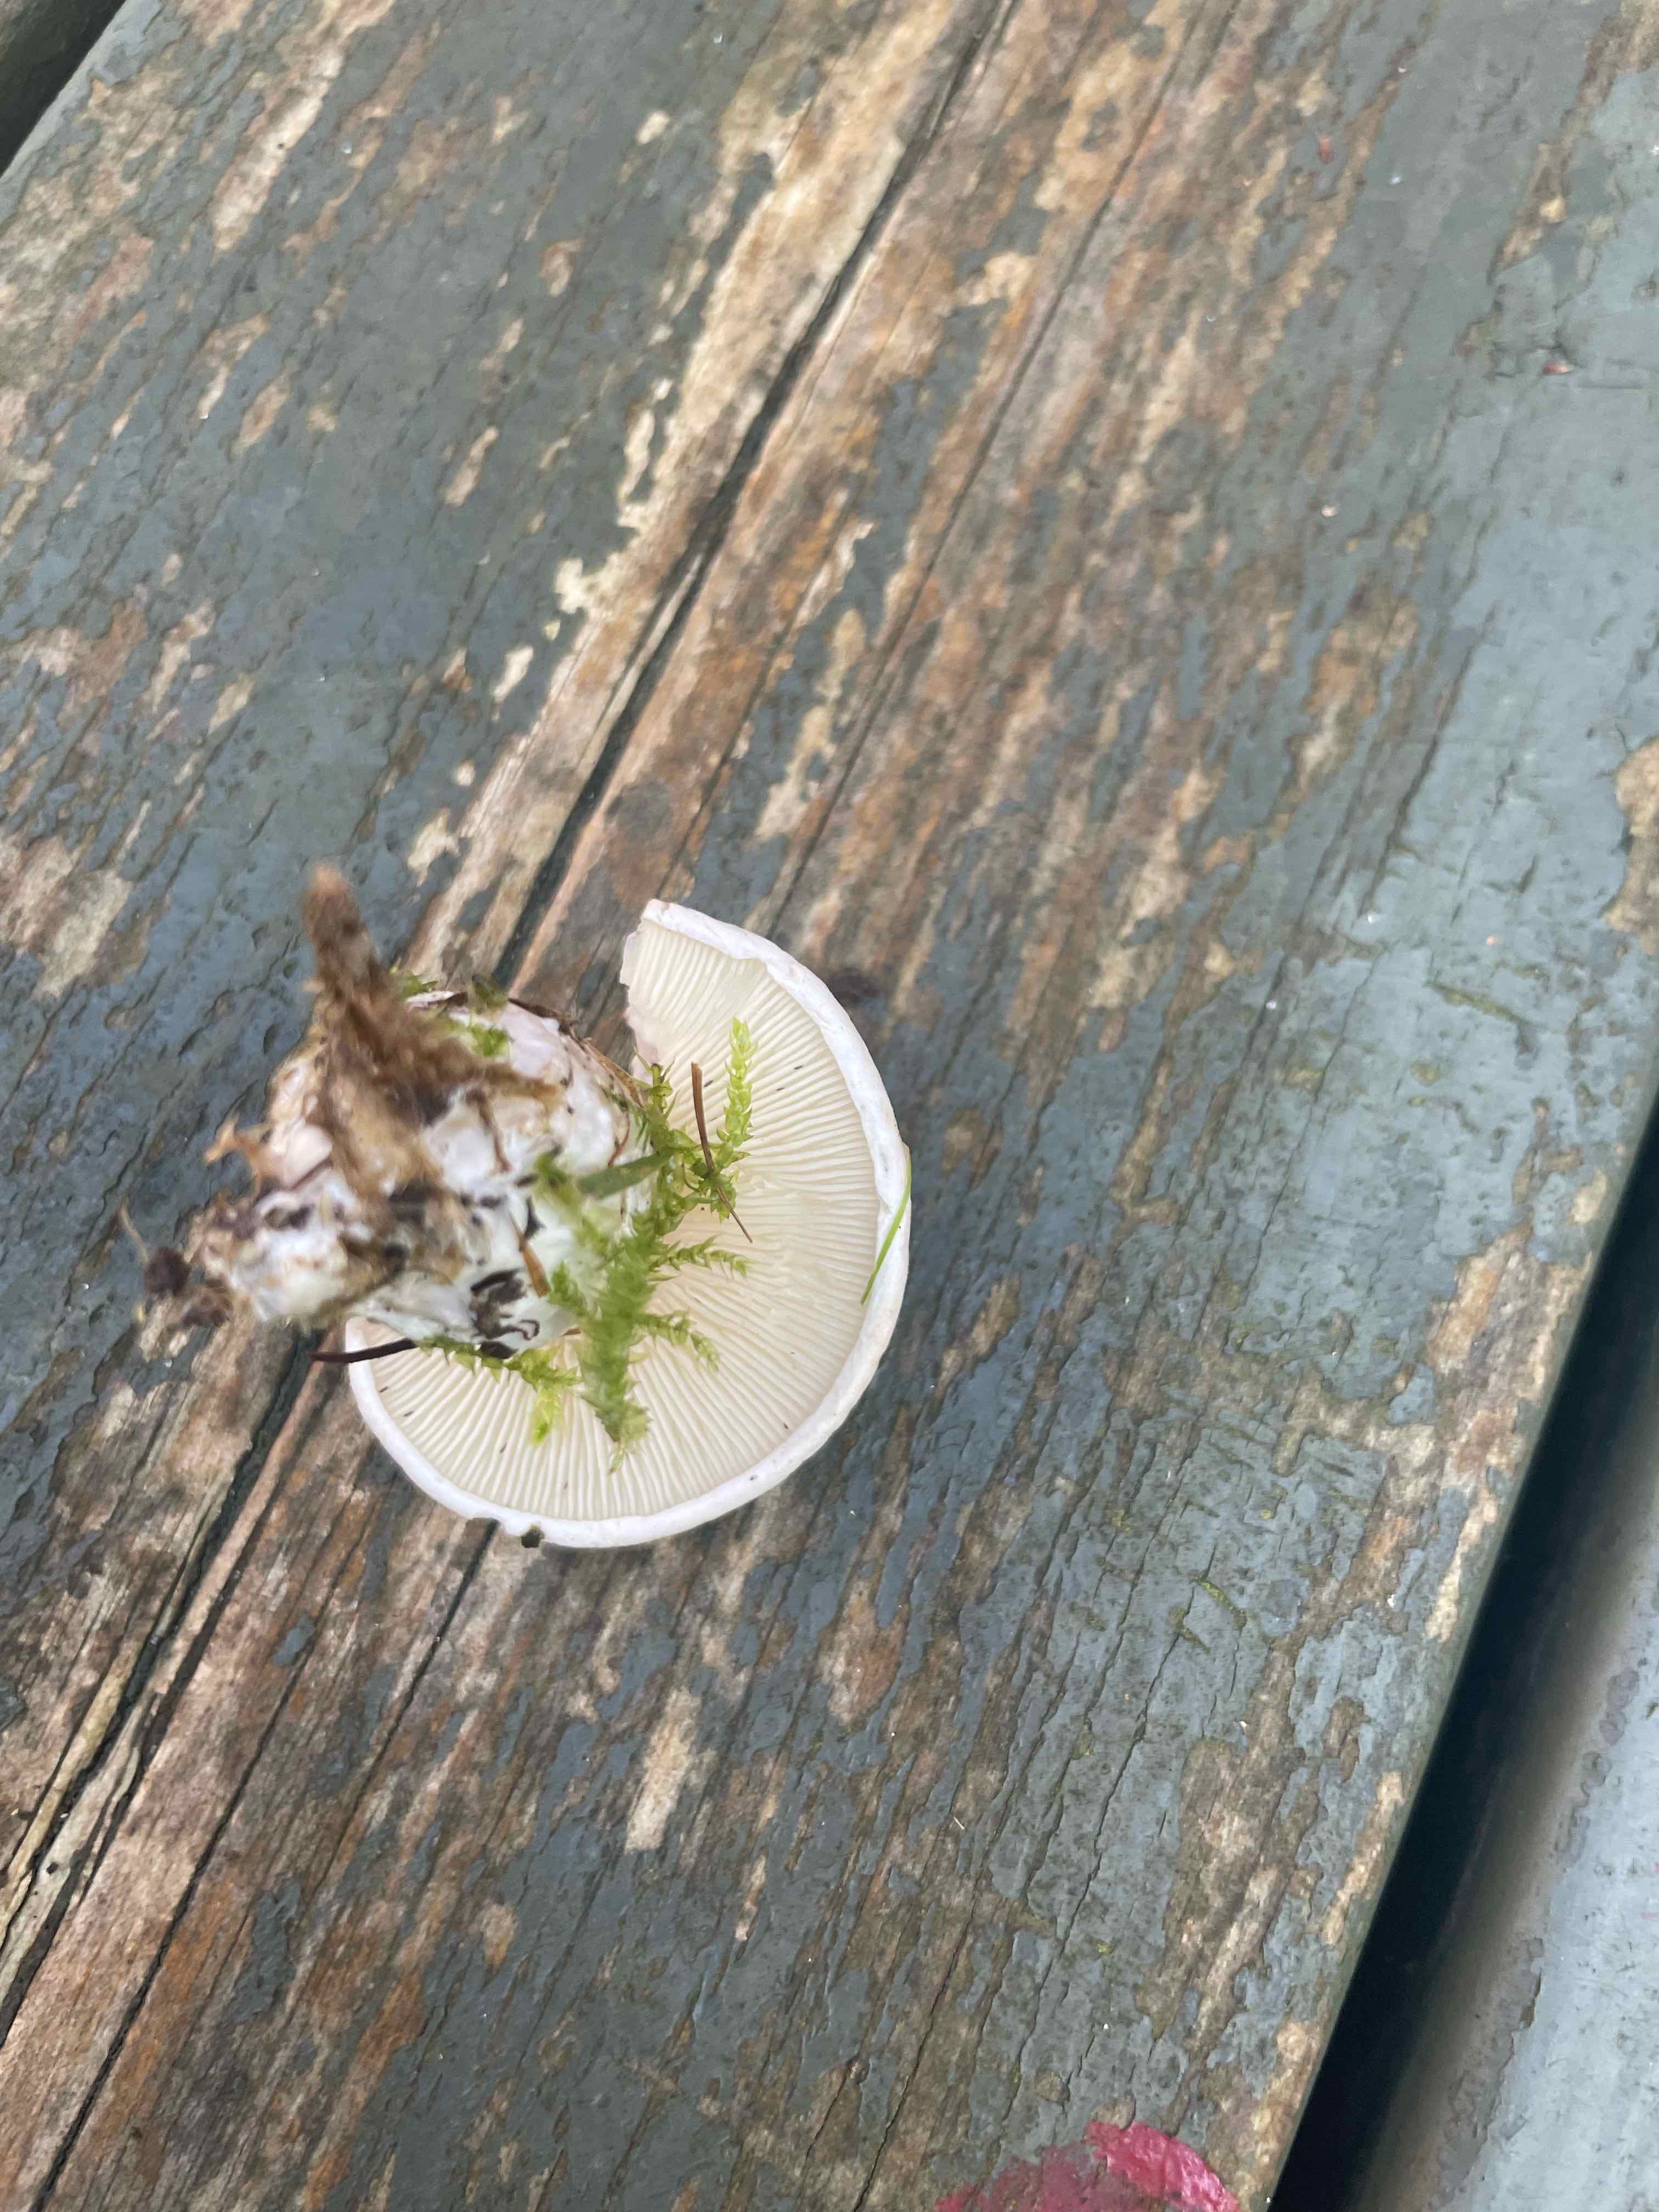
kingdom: Fungi
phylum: Basidiomycota
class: Agaricomycetes
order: Agaricales
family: Entolomataceae
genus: Clitopilus
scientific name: Clitopilus prunulus
